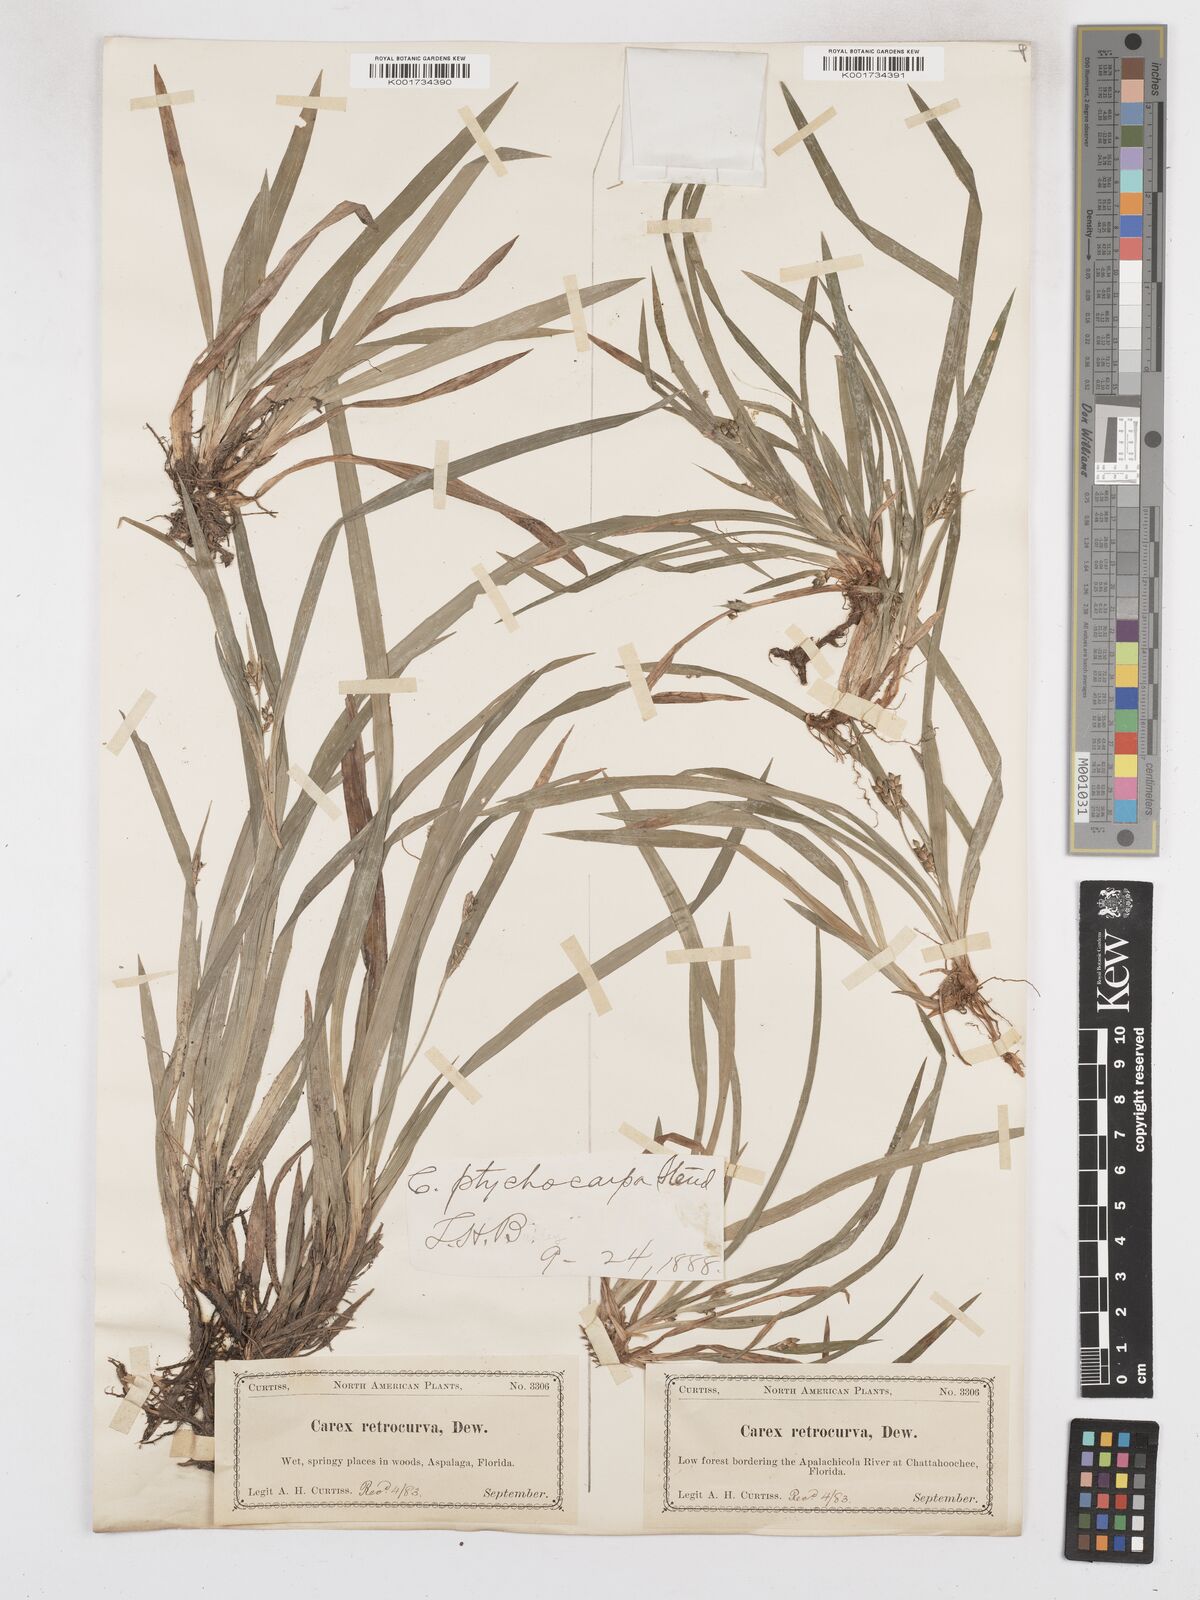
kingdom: Plantae
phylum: Tracheophyta
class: Liliopsida
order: Poales
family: Cyperaceae
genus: Carex
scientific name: Carex abscondita
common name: Thicket sedge
